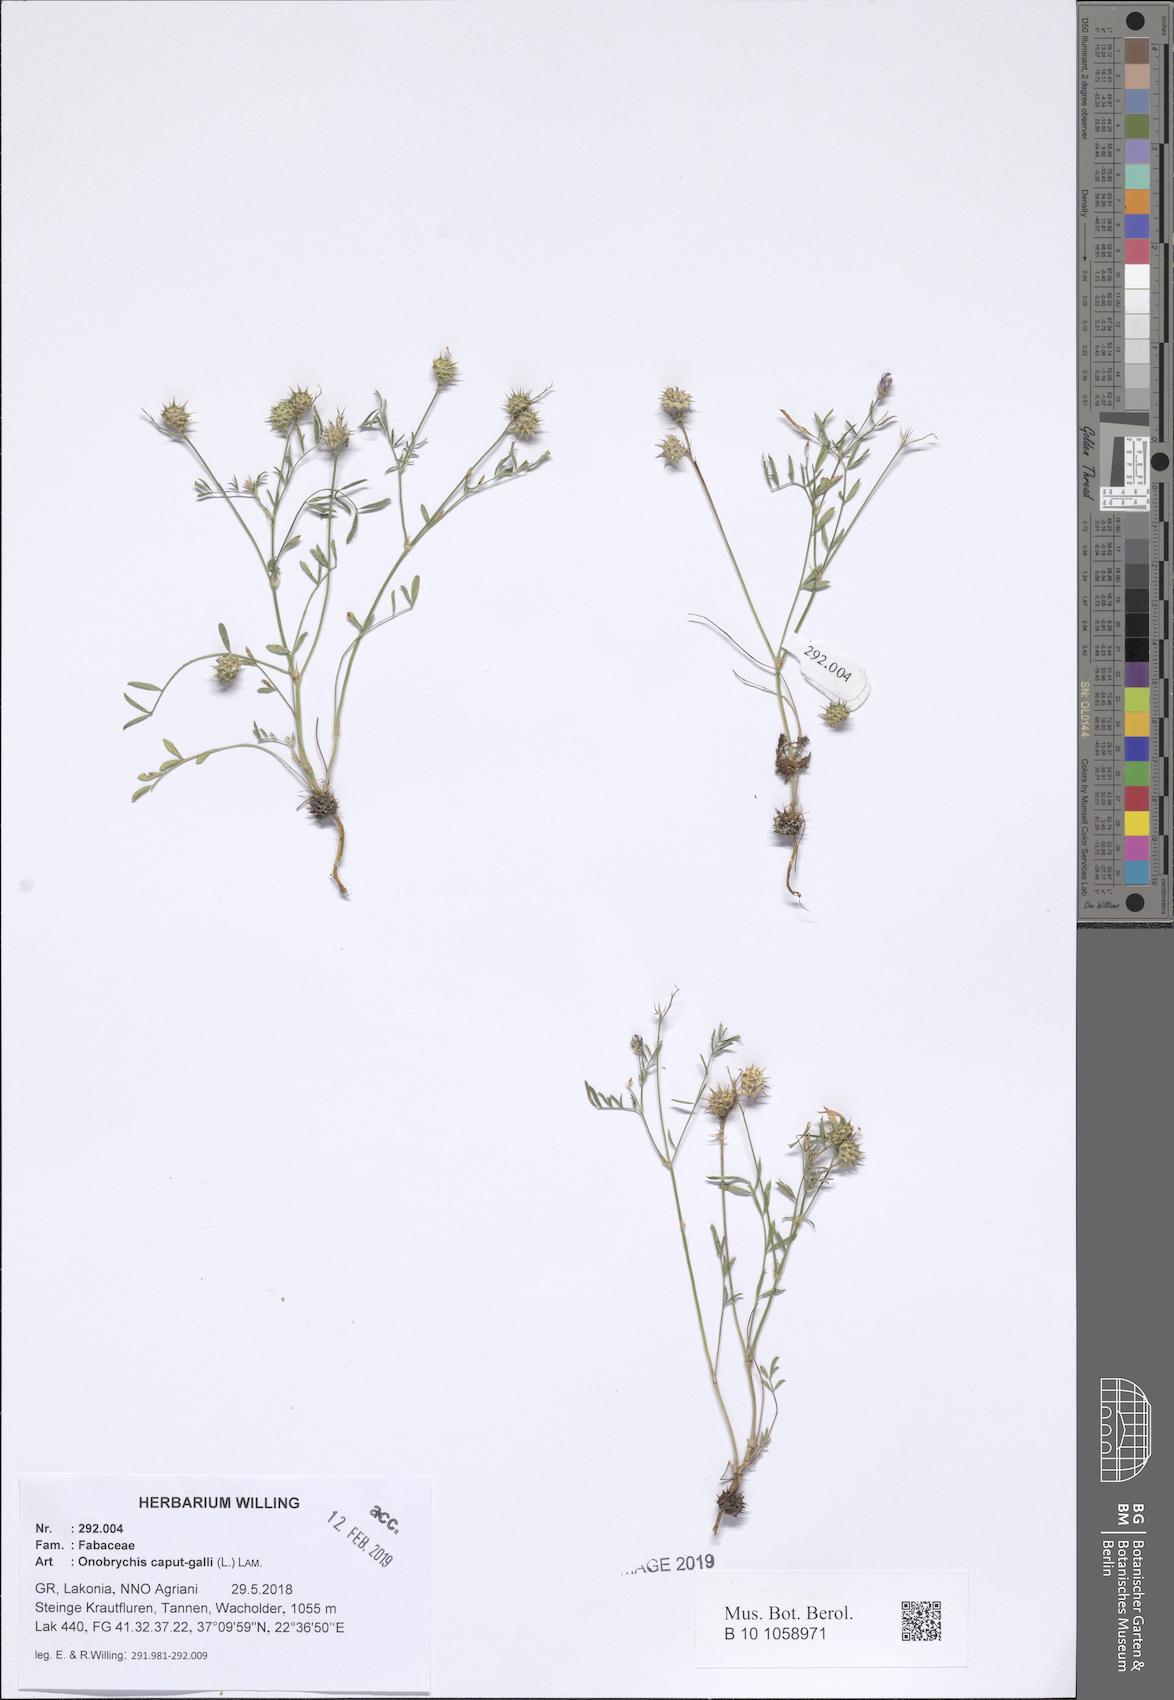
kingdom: Plantae
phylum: Tracheophyta
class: Magnoliopsida
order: Fabales
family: Fabaceae
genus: Onobrychis
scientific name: Onobrychis caput-galli
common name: Cockscomb sainfoin
